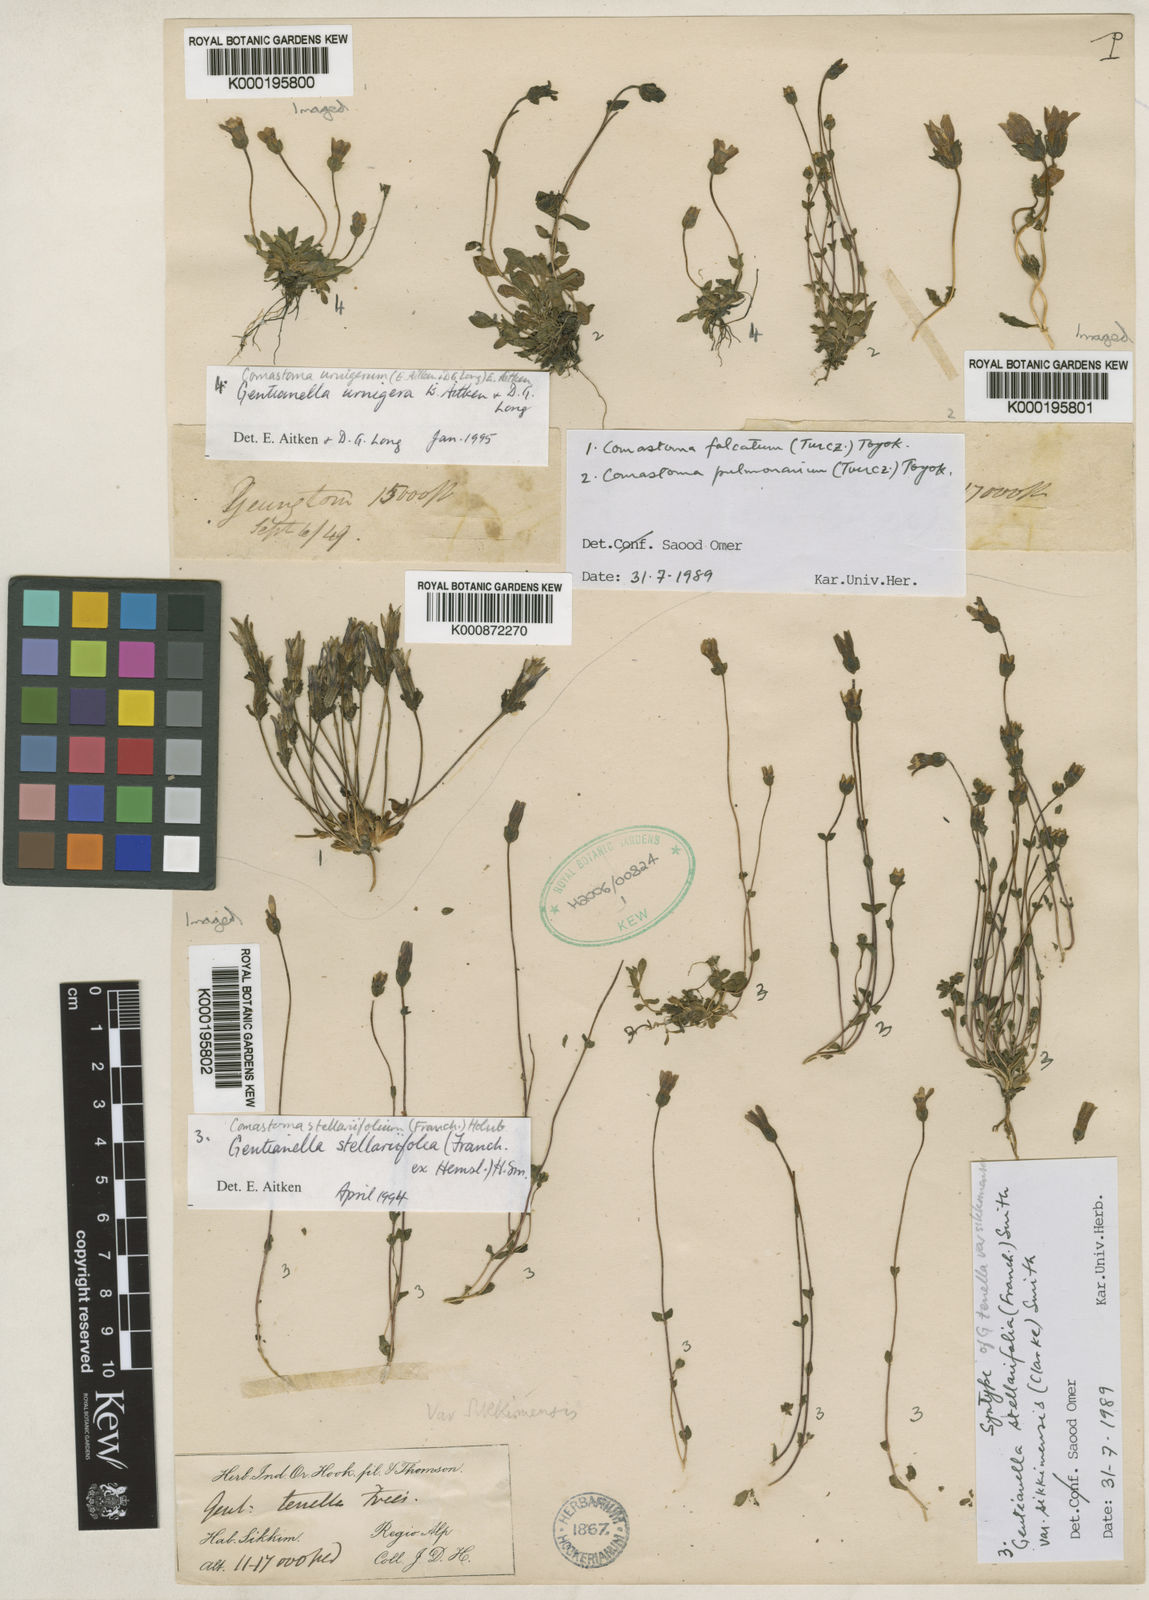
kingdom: Plantae
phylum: Tracheophyta
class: Magnoliopsida
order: Gentianales
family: Gentianaceae
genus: Comastoma
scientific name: Comastoma stellariifolium
